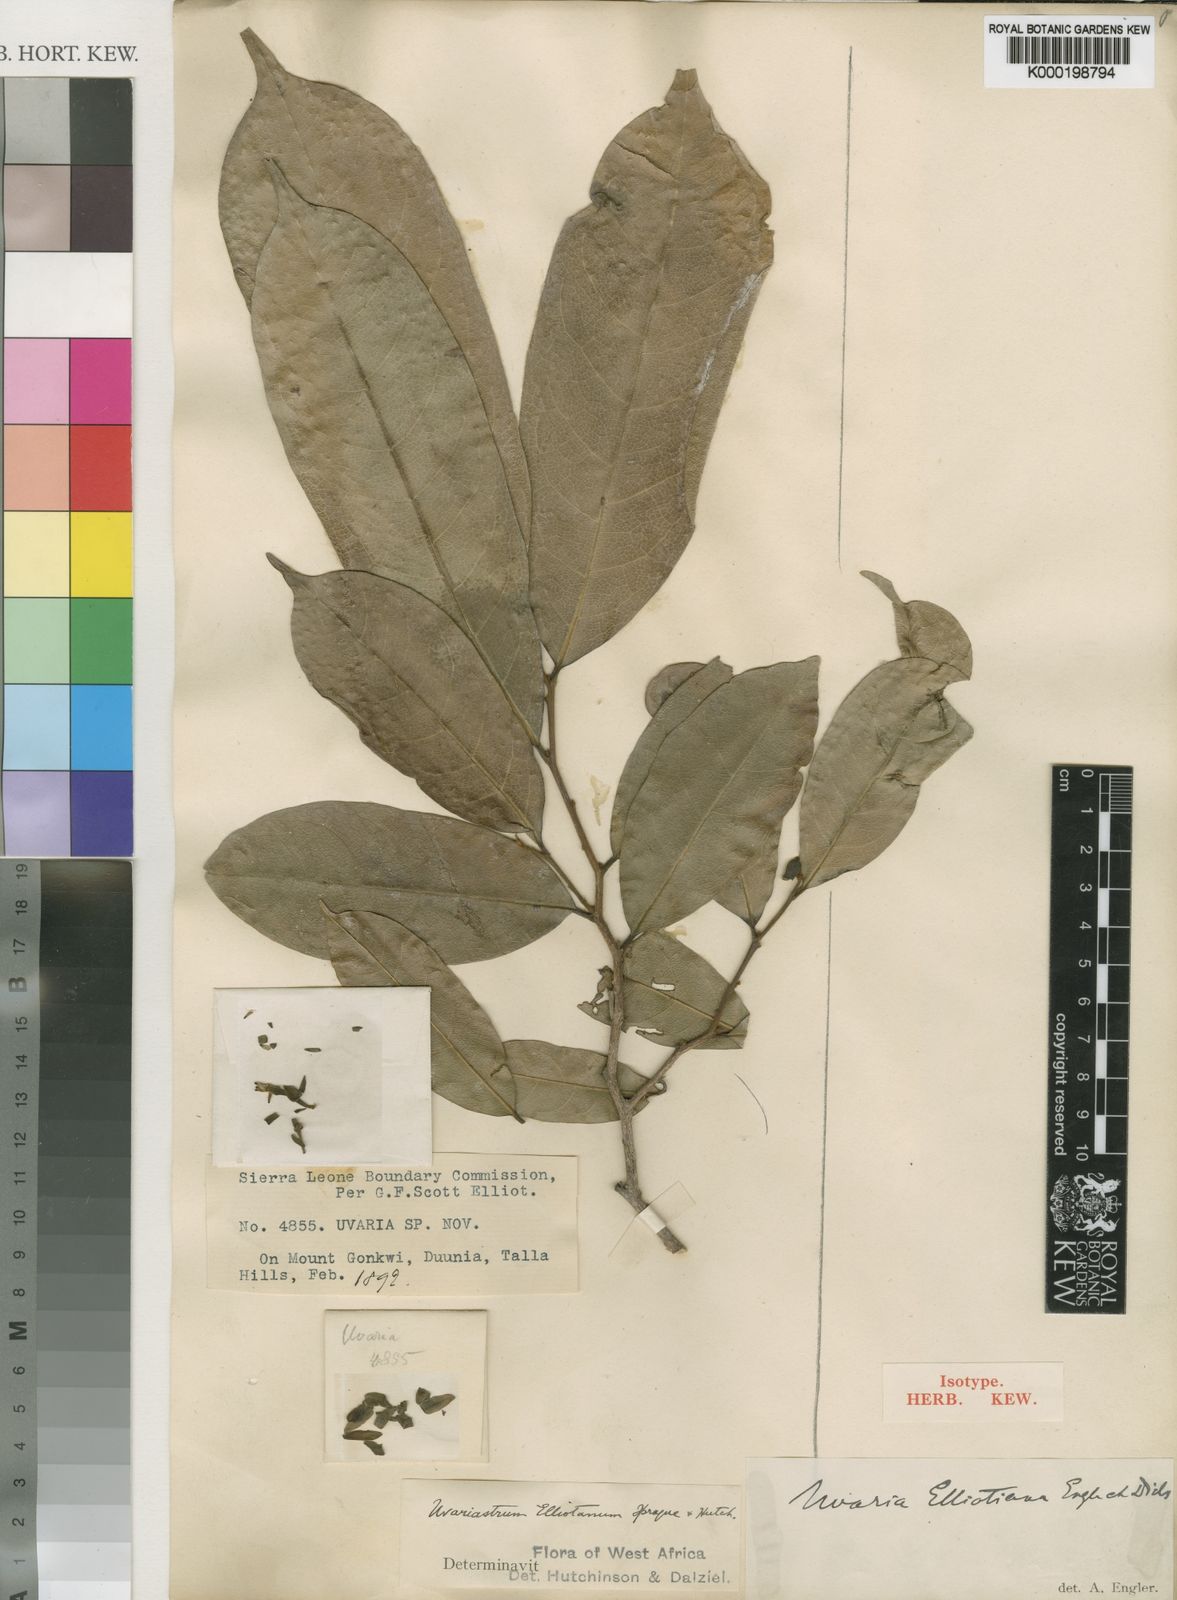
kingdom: Plantae
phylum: Tracheophyta
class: Magnoliopsida
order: Magnoliales
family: Annonaceae
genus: Mischogyne
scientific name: Mischogyne elliotianum
